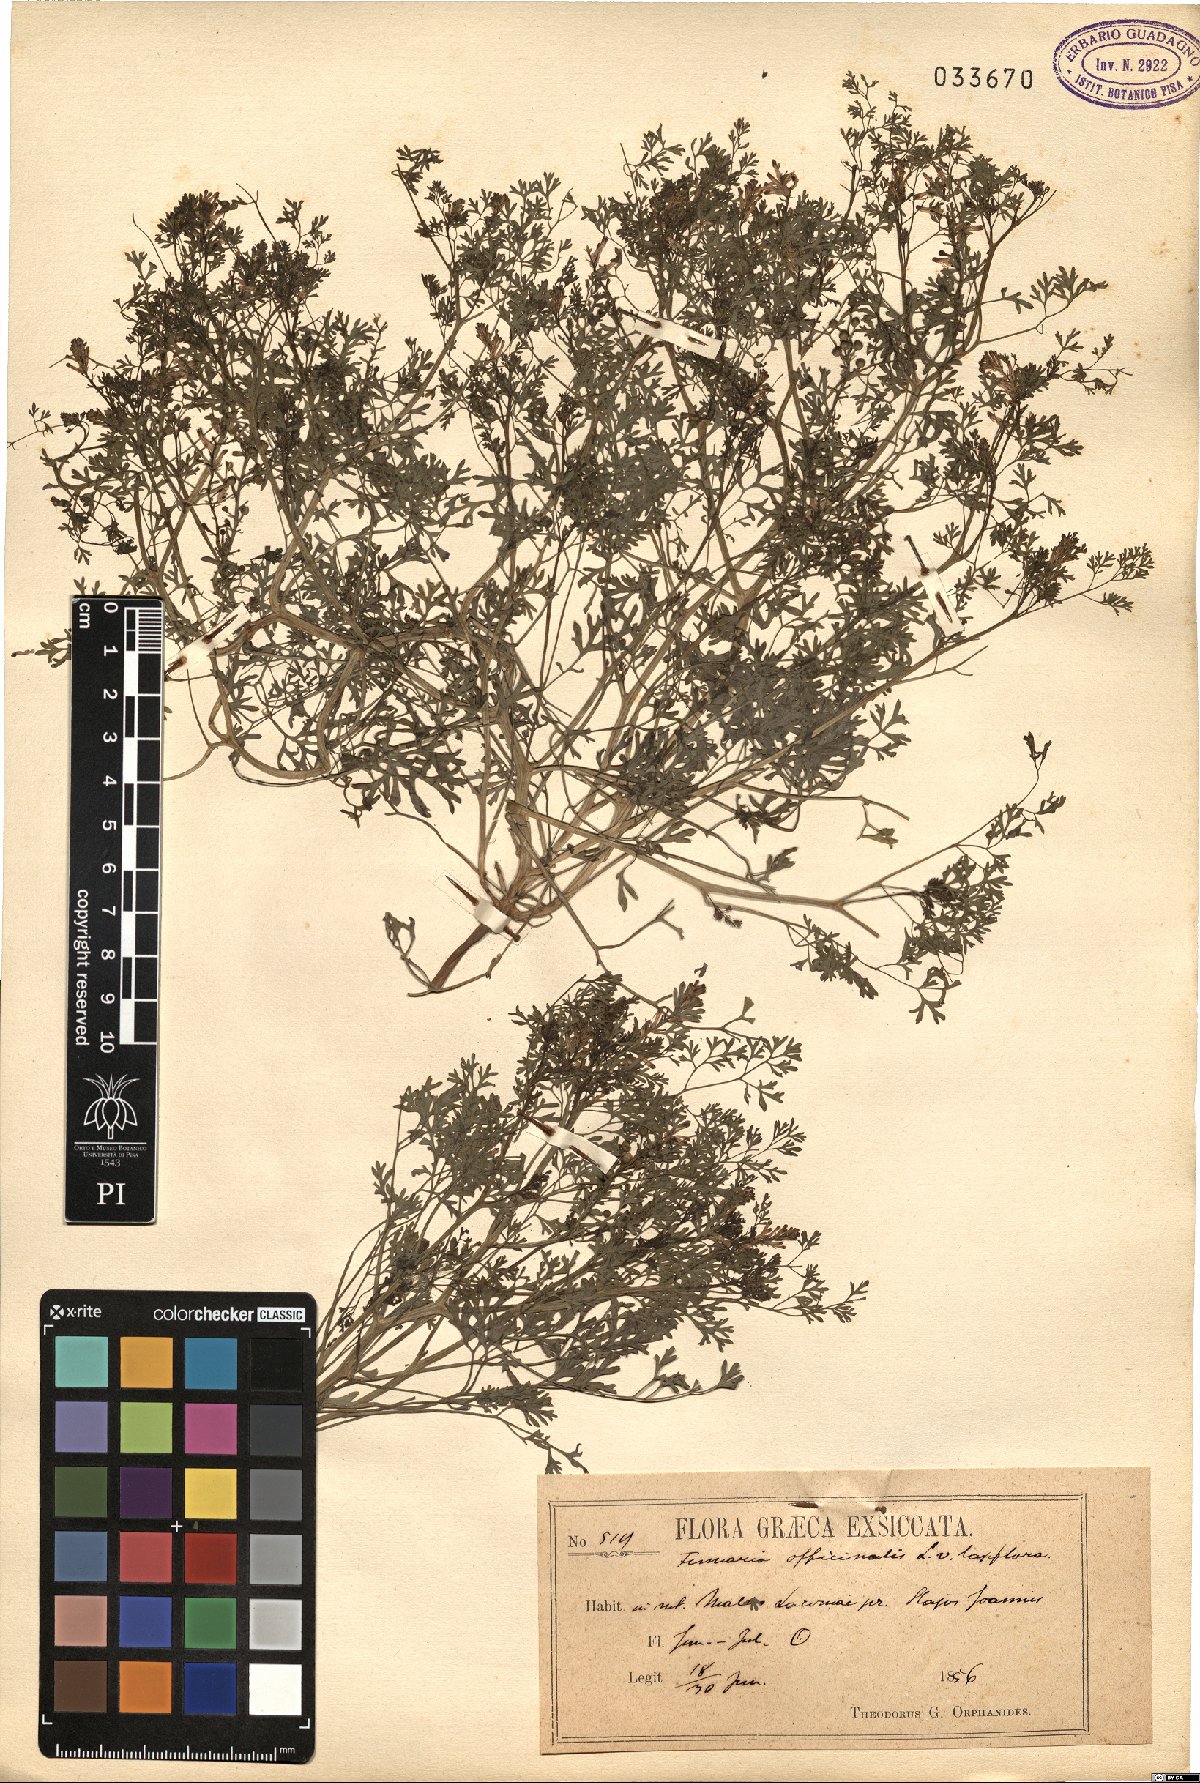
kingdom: Plantae
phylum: Tracheophyta
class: Magnoliopsida
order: Ranunculales
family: Papaveraceae
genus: Fumaria
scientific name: Fumaria officinalis
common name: Common fumitory
